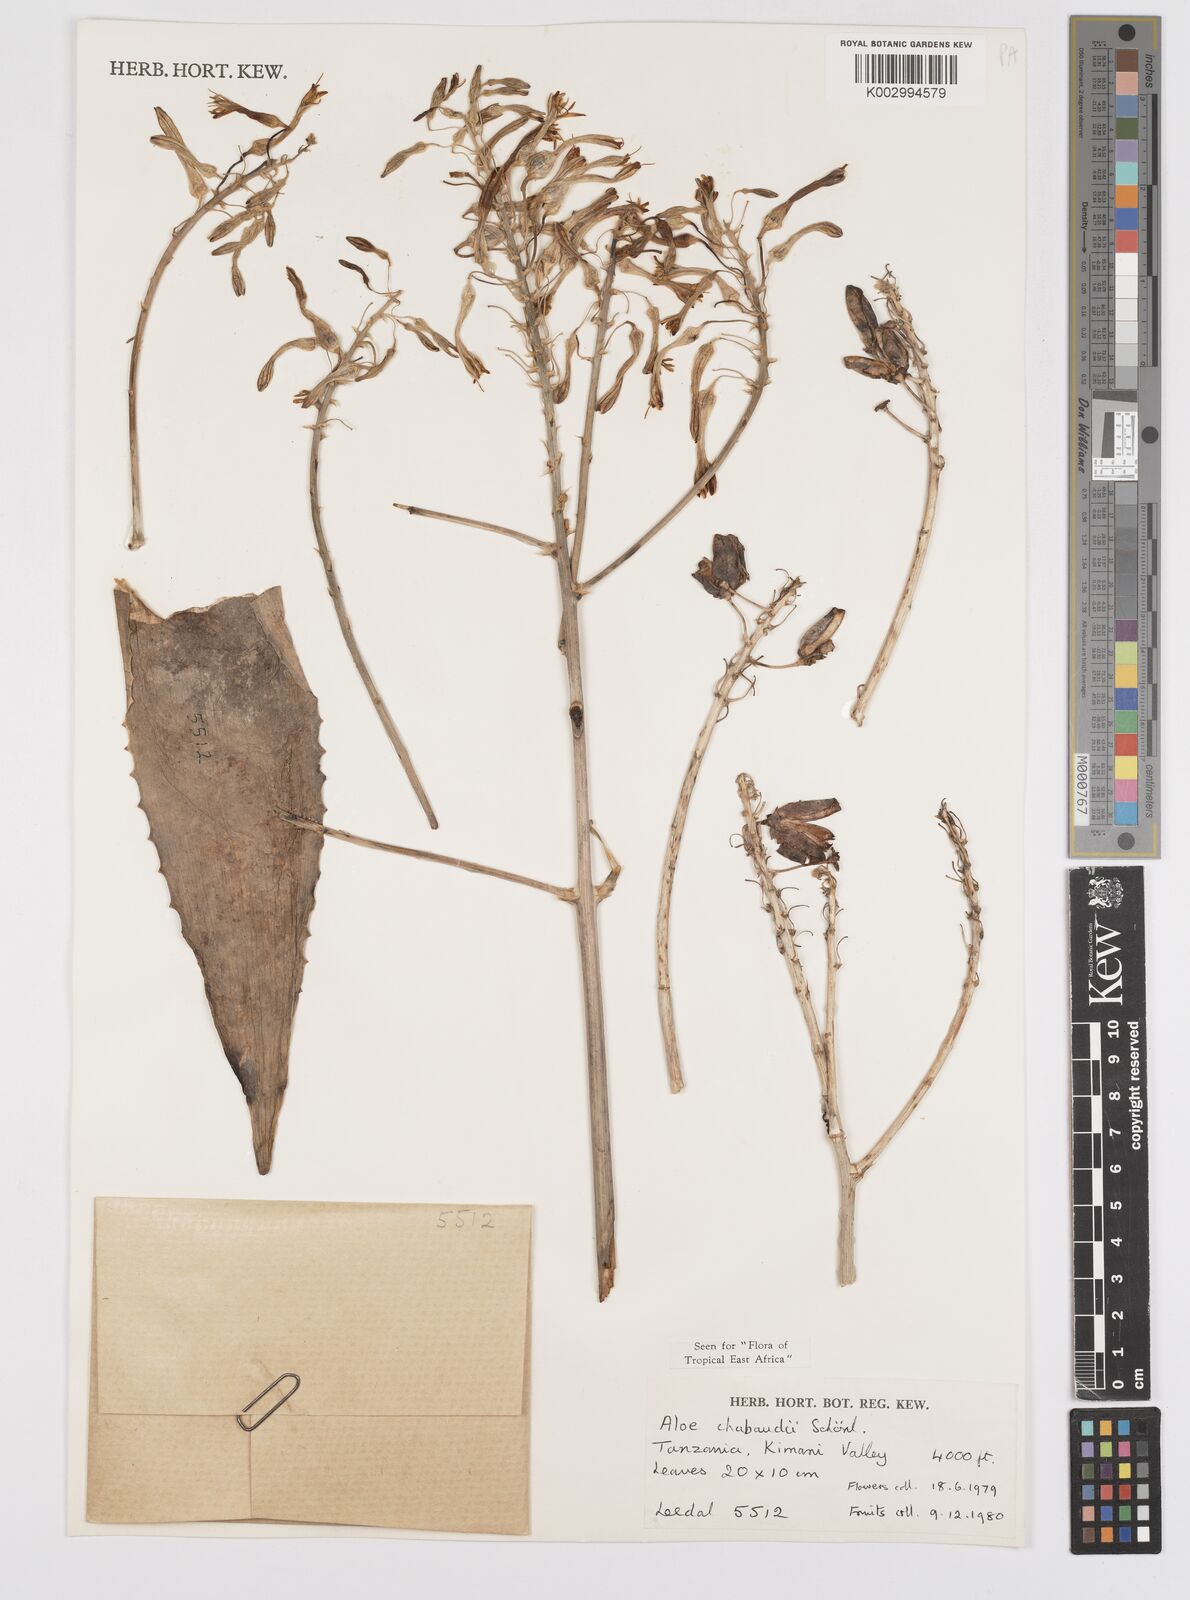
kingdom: Plantae
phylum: Tracheophyta
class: Liliopsida
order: Asparagales
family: Asphodelaceae
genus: Aloe
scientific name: Aloe chabaudii
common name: Chabaud's aloe
